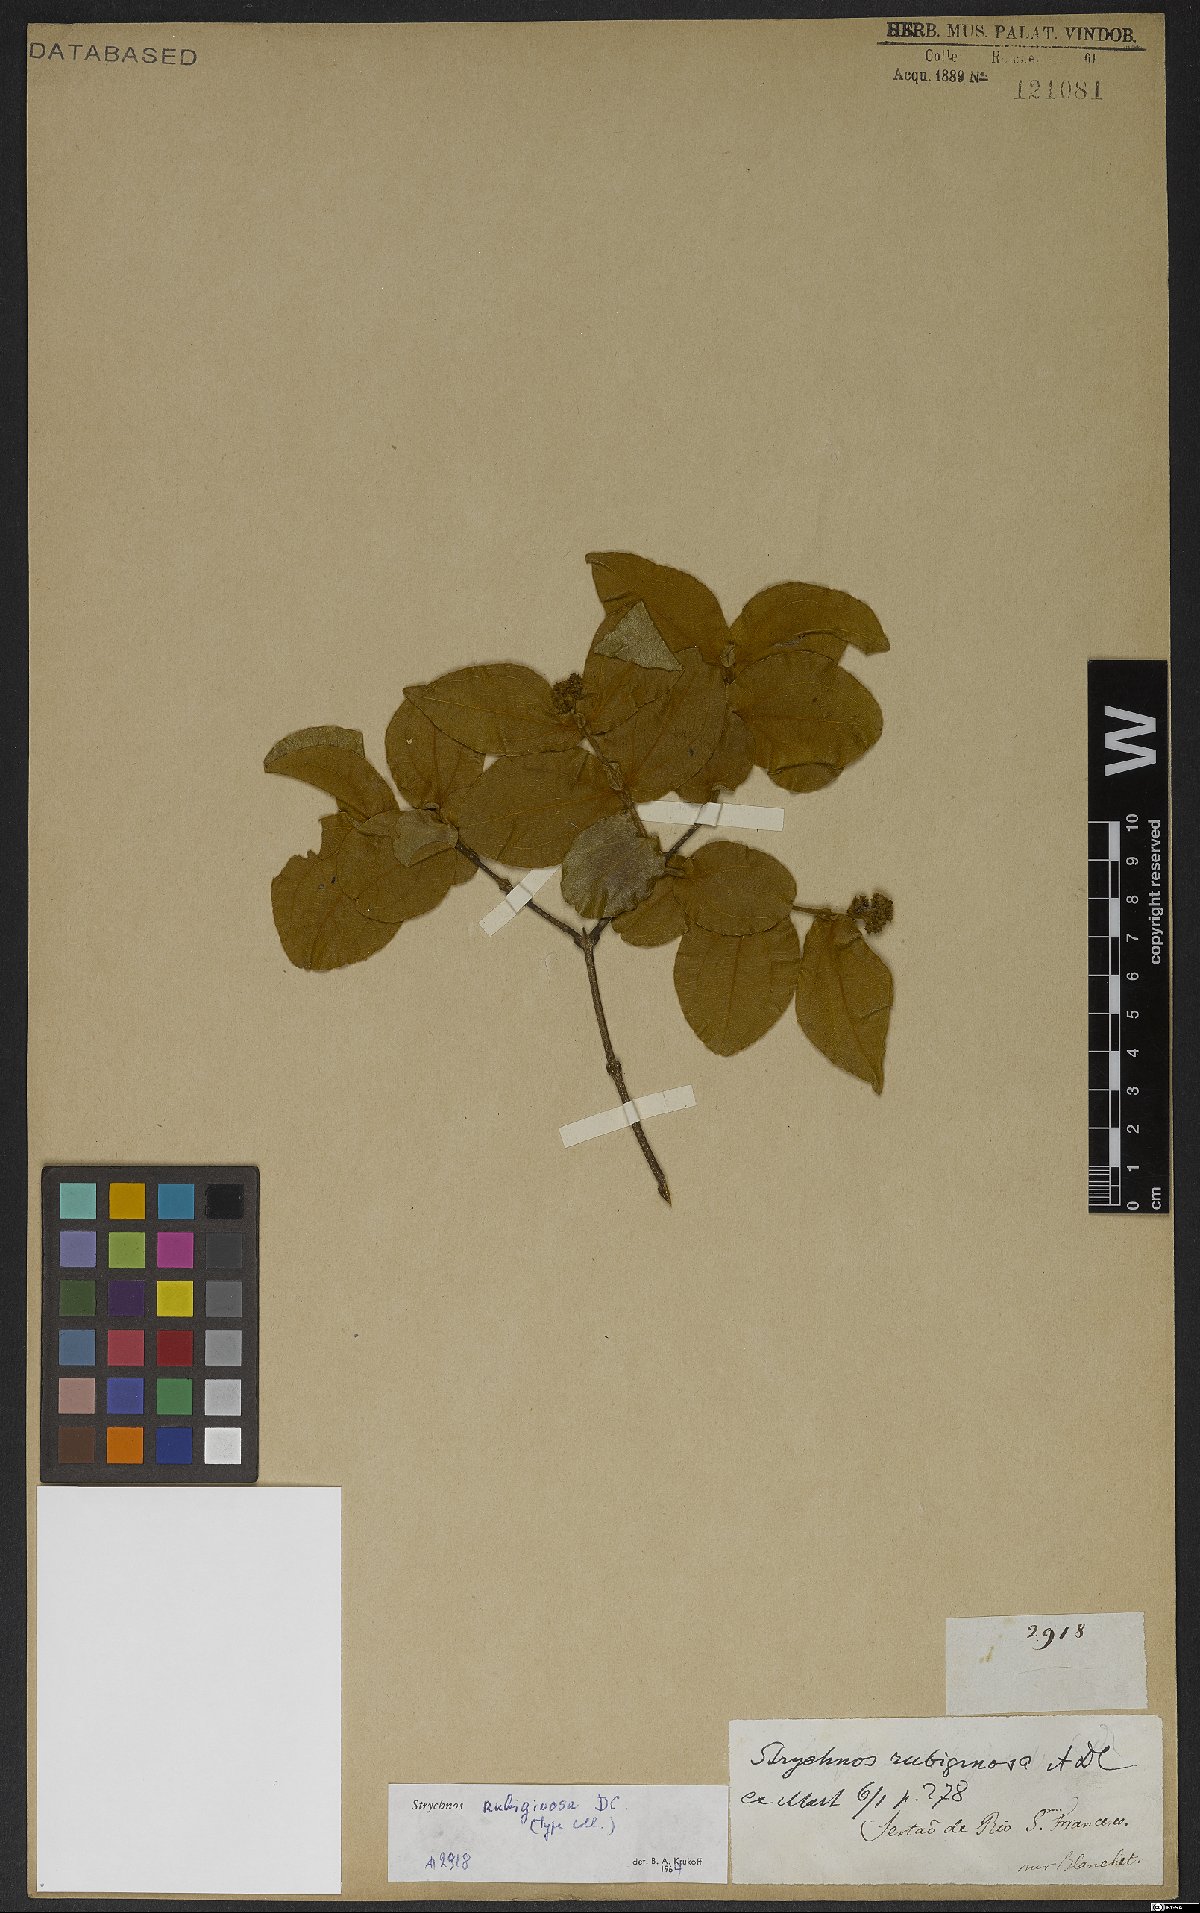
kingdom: Plantae
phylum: Tracheophyta
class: Magnoliopsida
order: Gentianales
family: Loganiaceae
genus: Strychnos
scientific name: Strychnos rubiginosa
